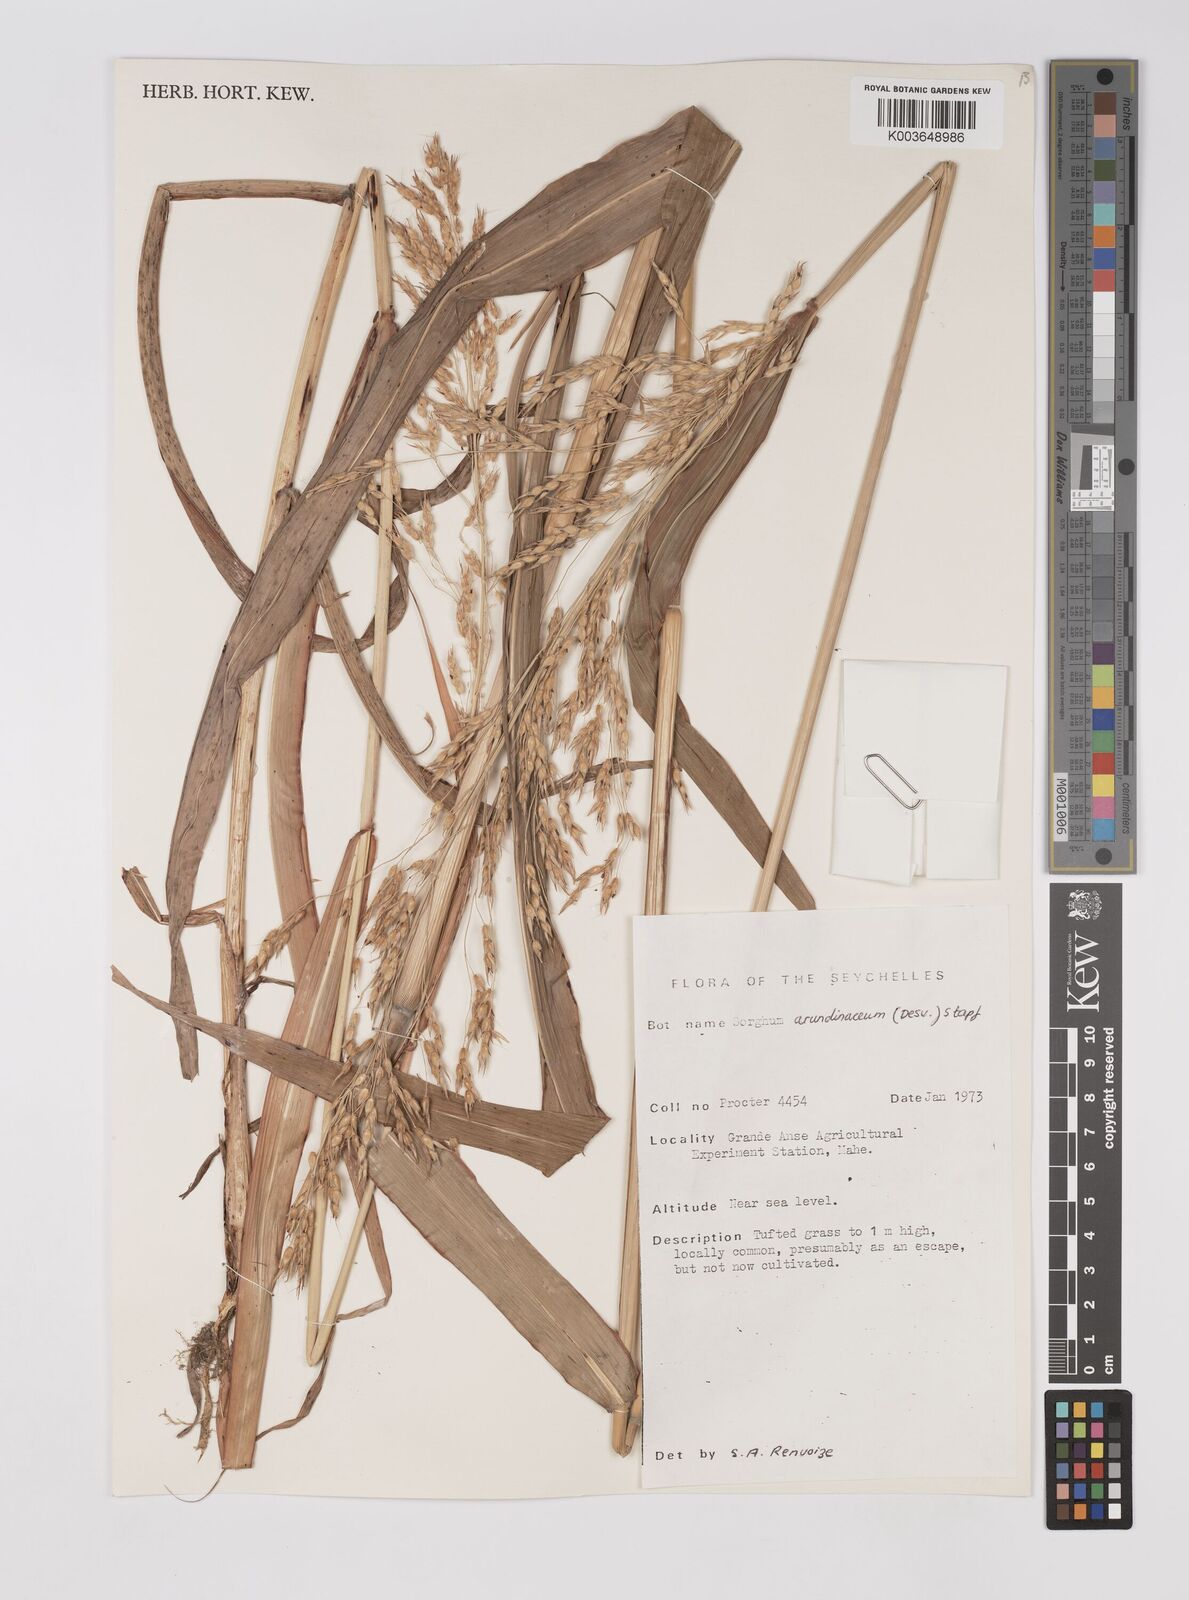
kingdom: Plantae
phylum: Tracheophyta
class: Liliopsida
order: Poales
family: Poaceae
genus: Sorghum
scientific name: Sorghum arundinaceum
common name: Sorghum
